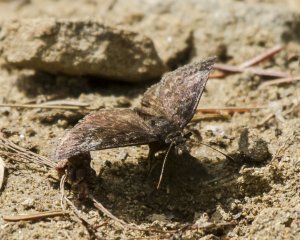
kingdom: Animalia
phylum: Arthropoda
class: Insecta
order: Lepidoptera
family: Hesperiidae
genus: Erynnis
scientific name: Erynnis icelus
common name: Dreamy Duskywing
